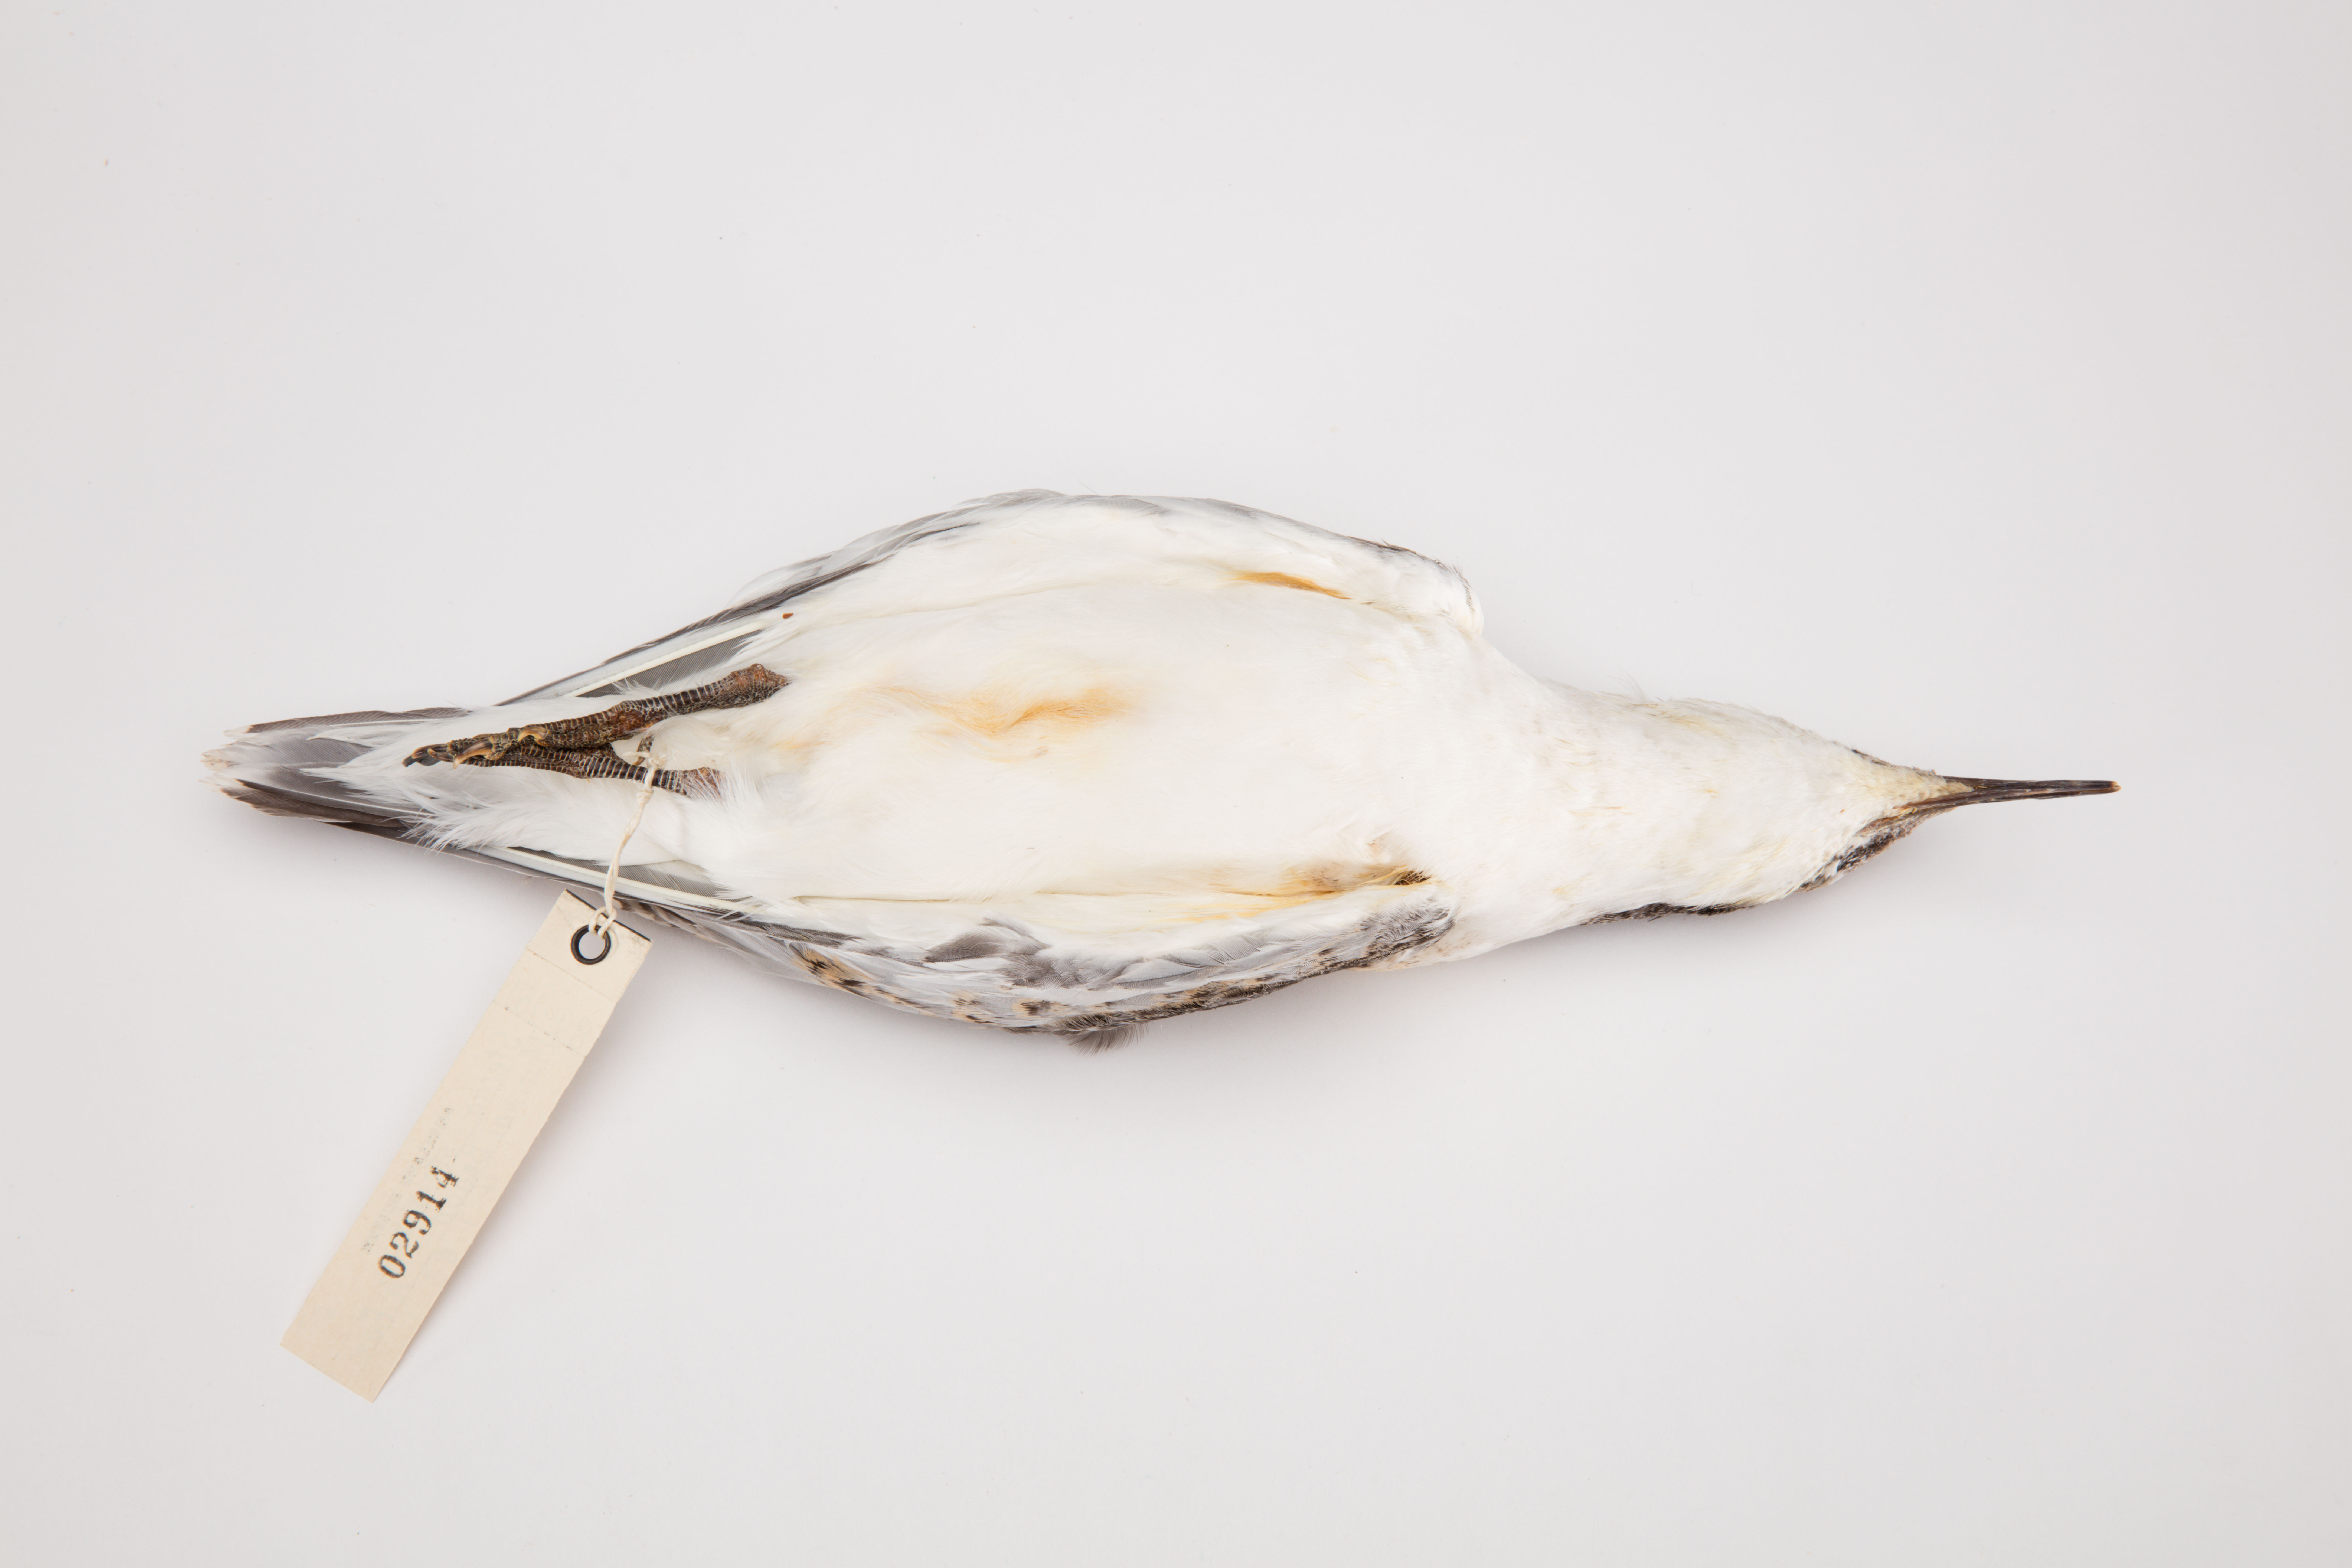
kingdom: Animalia
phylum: Chordata
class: Aves
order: Charadriiformes
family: Laridae
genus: Sterna
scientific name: Sterna striata
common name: White-fronted tern
